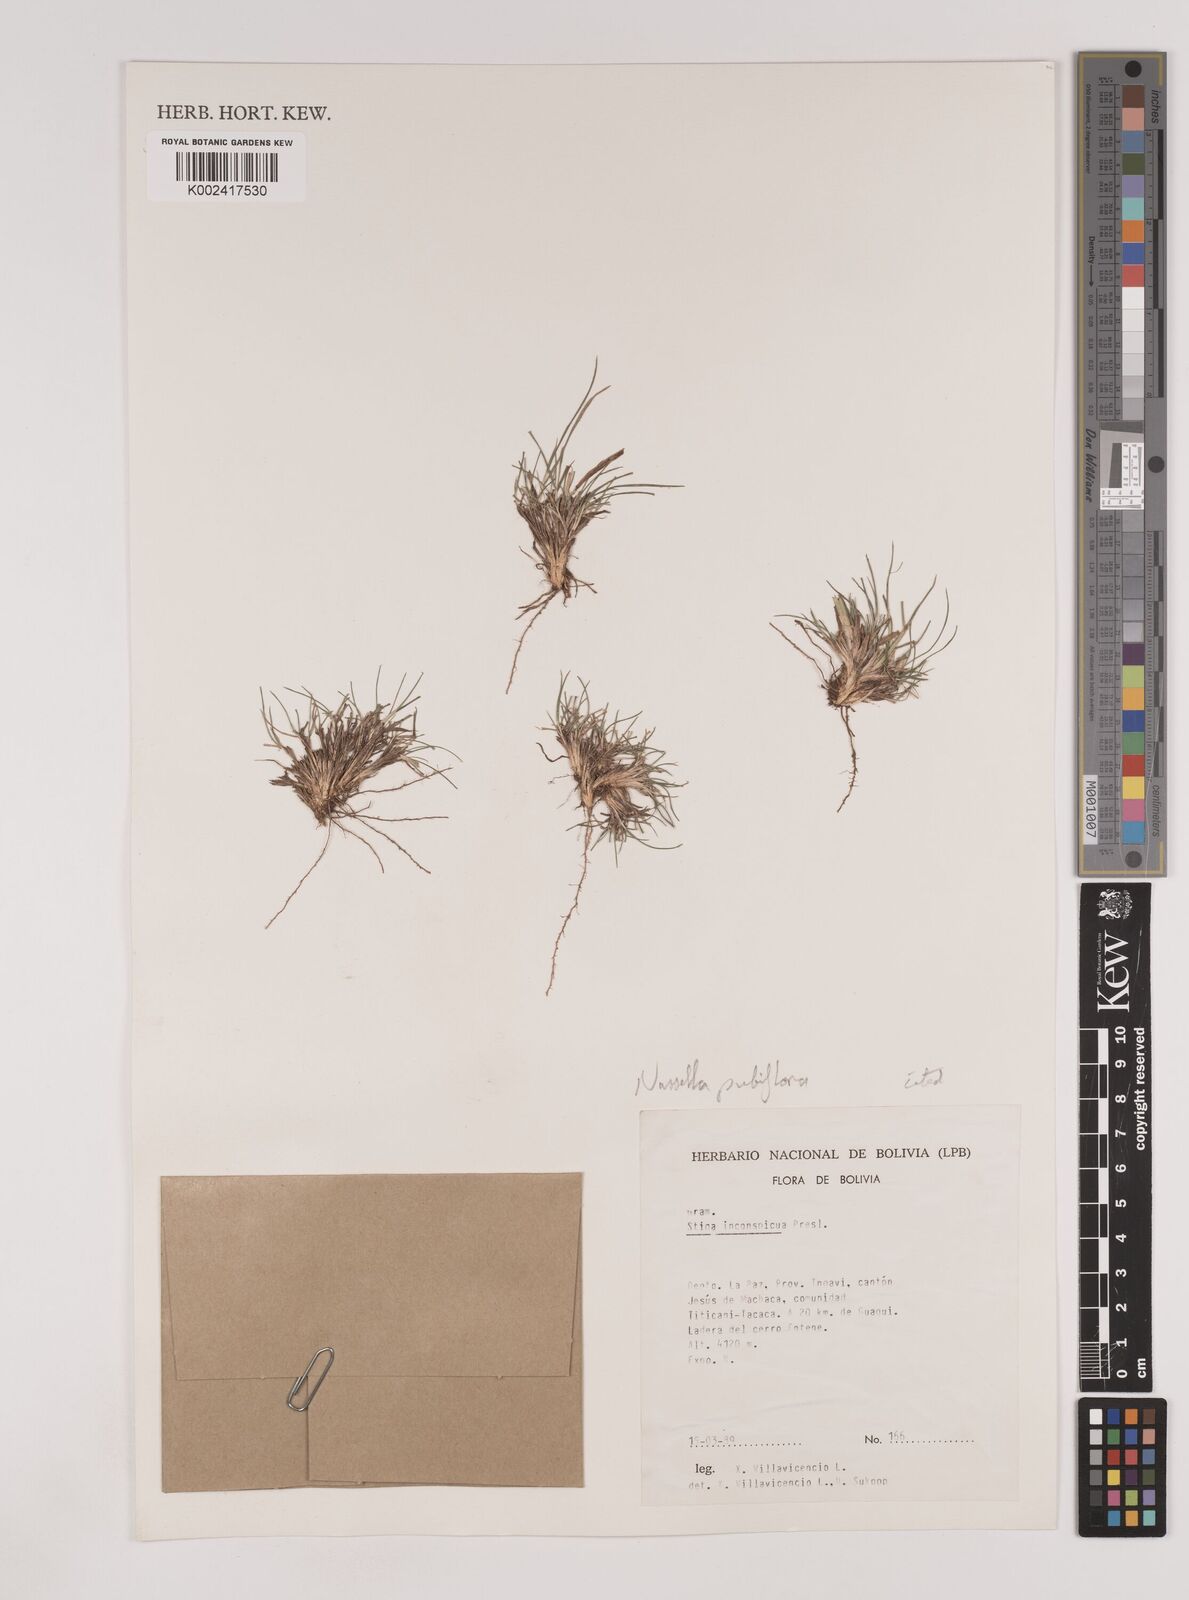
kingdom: Plantae
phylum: Tracheophyta
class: Liliopsida
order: Poales
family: Poaceae
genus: Nassella
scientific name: Nassella pubiflora
